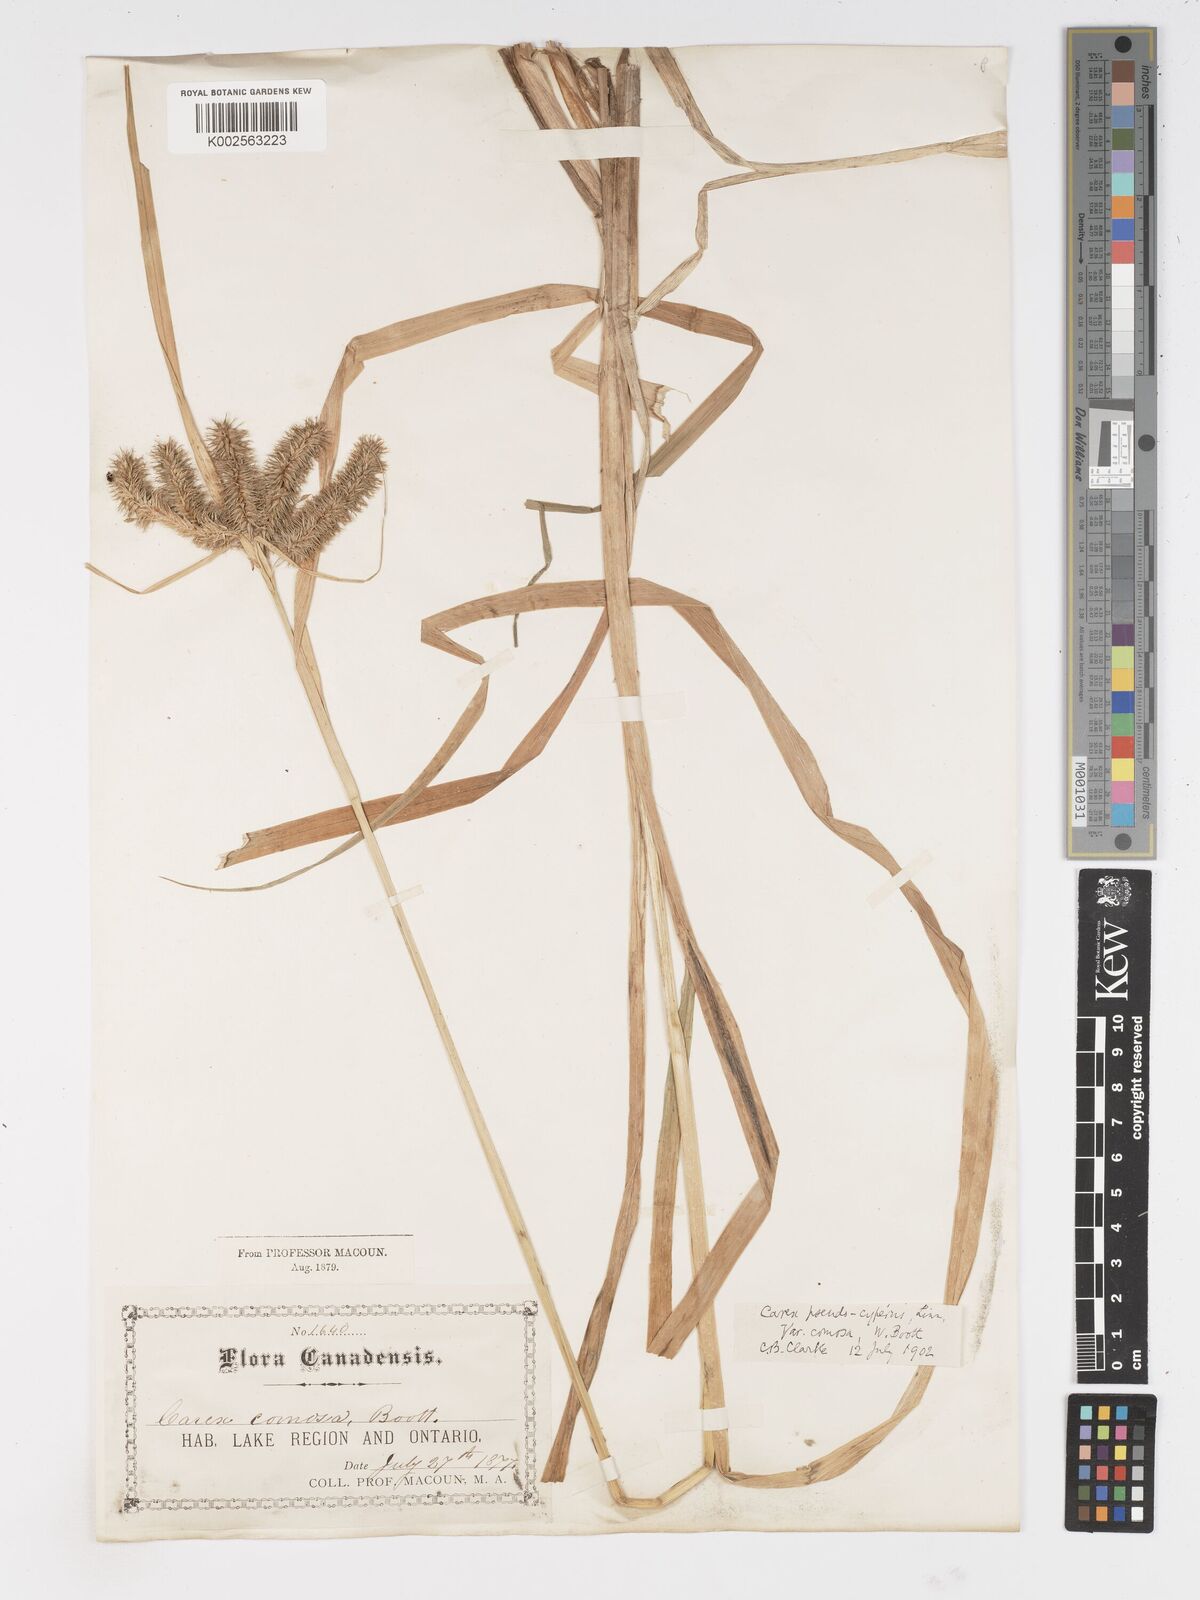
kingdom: Plantae
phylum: Tracheophyta
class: Liliopsida
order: Poales
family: Cyperaceae
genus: Carex
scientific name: Carex comosa
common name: Bristly sedge
